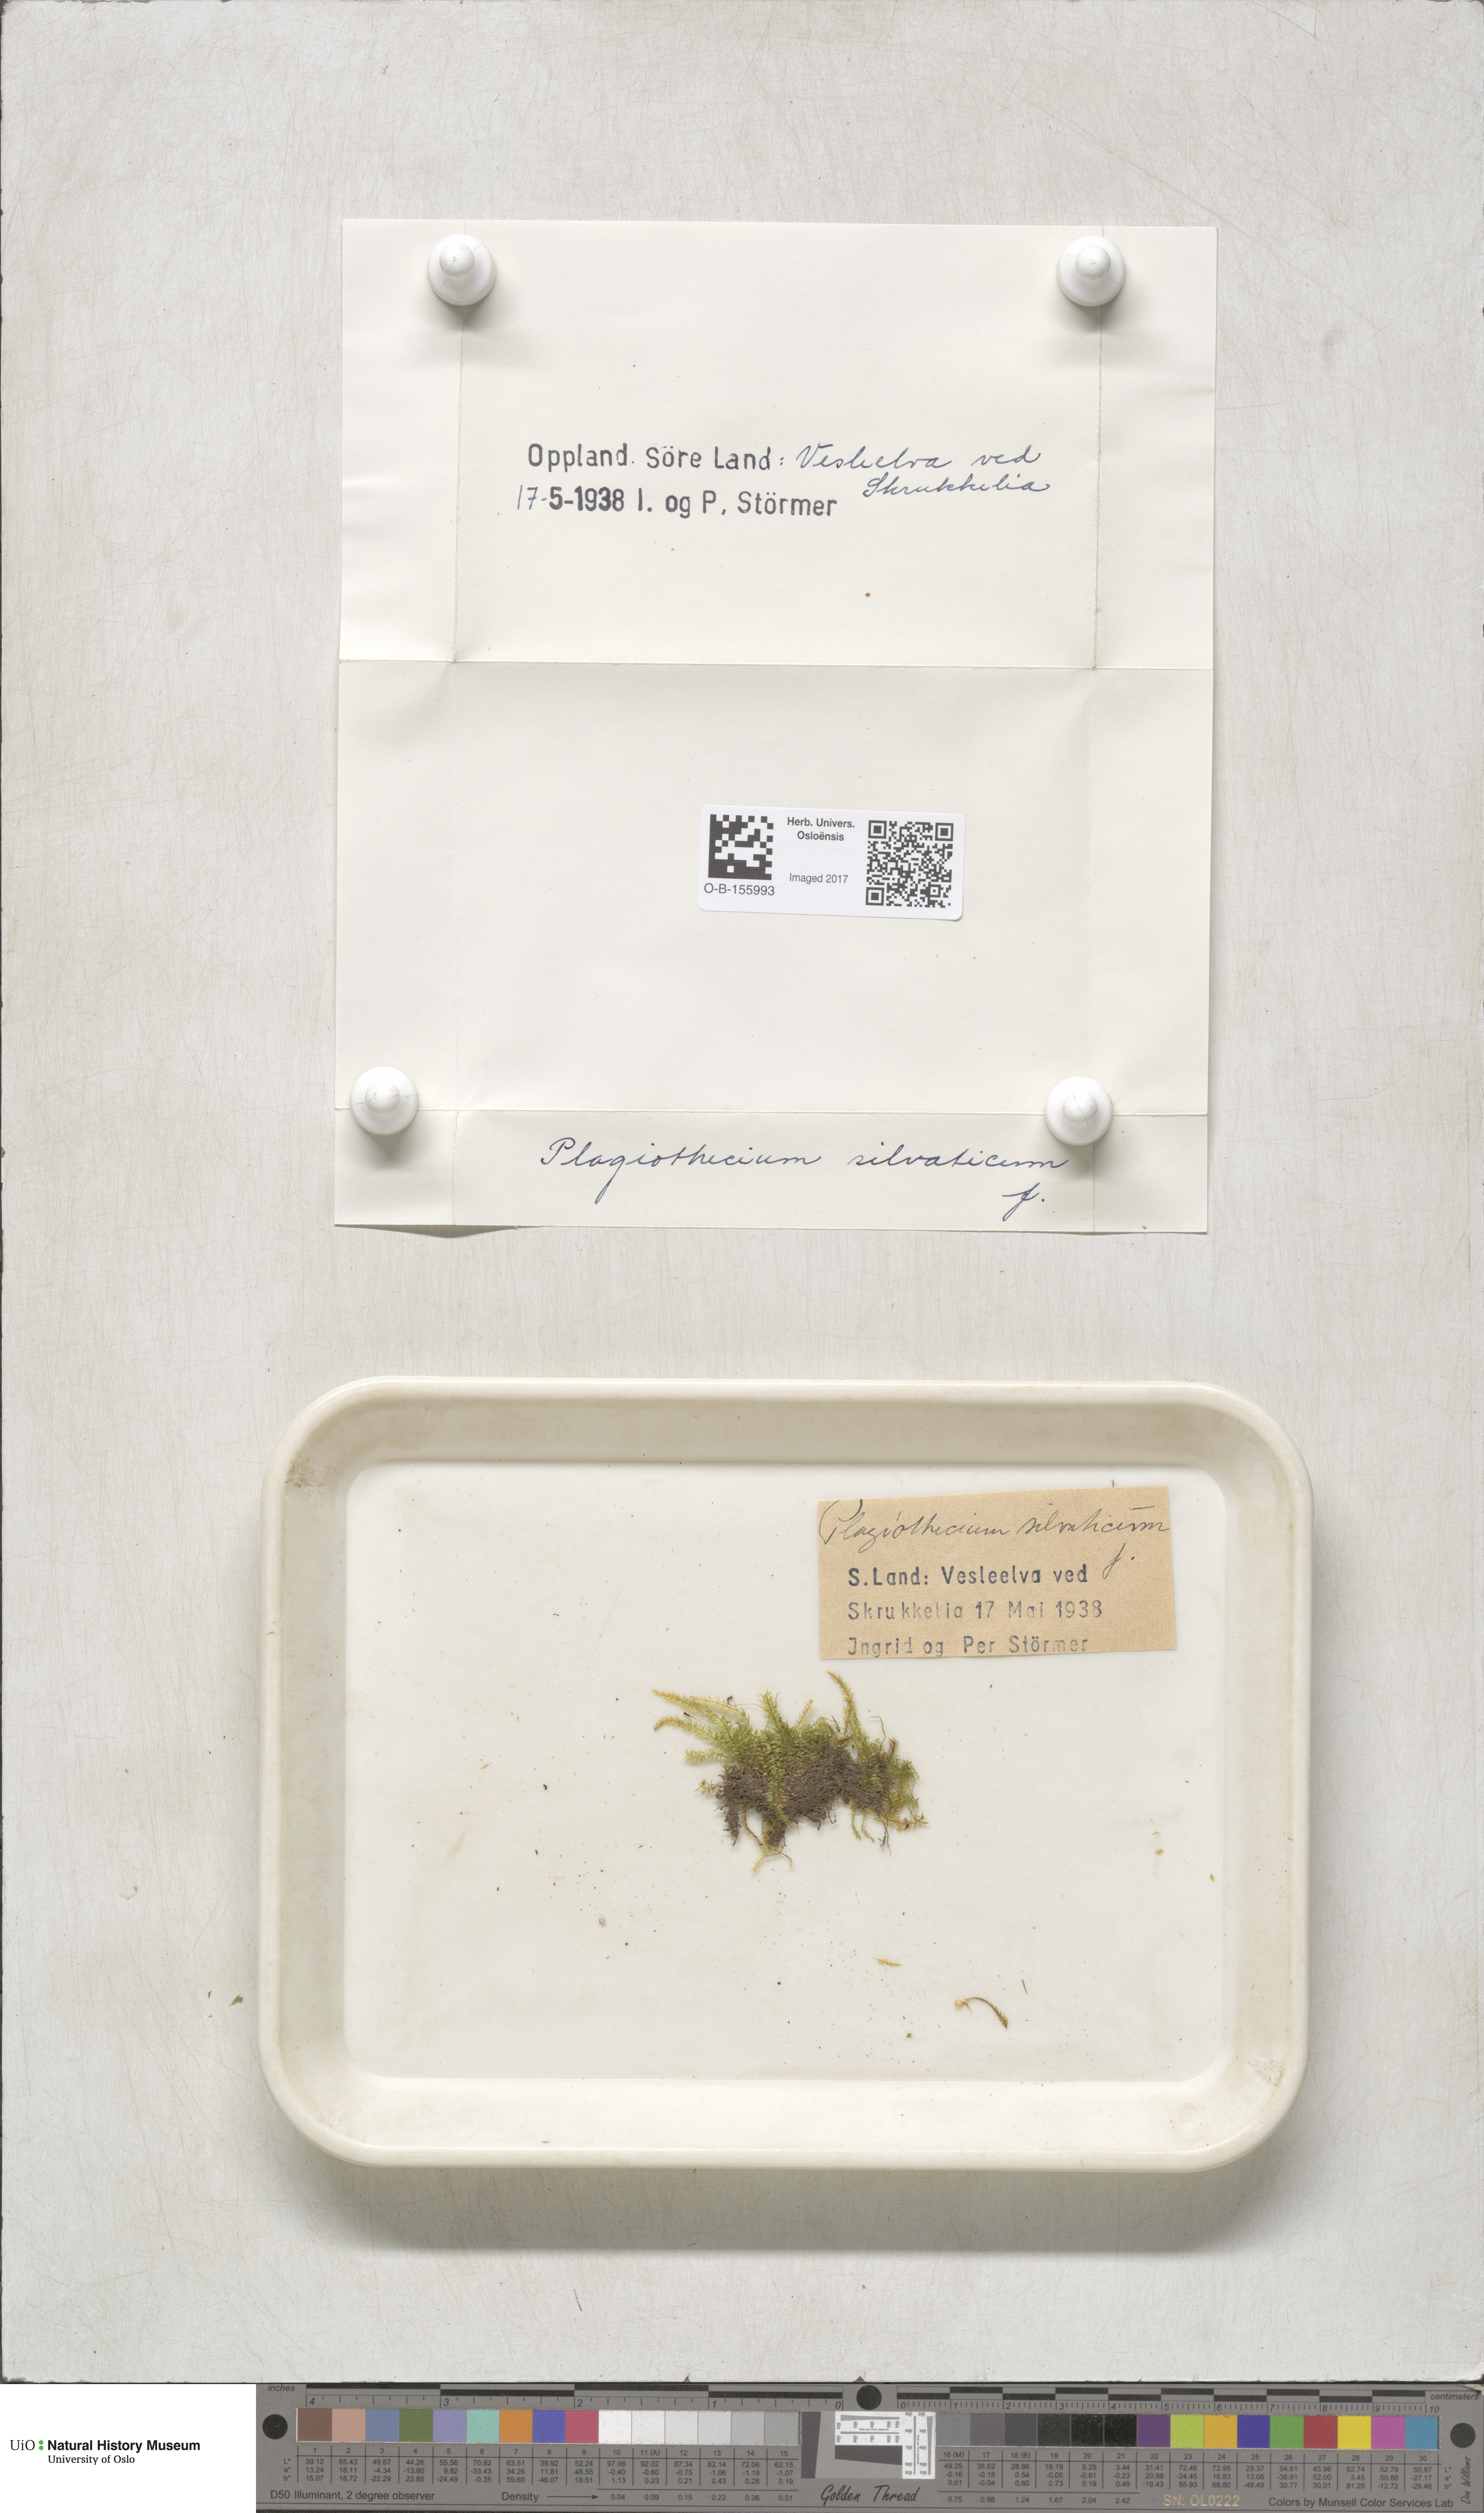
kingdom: Plantae
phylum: Bryophyta
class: Bryopsida
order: Hypnales
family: Plagiotheciaceae
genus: Plagiothecium
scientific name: Plagiothecium nemorale
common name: Woodsy silk-moss
